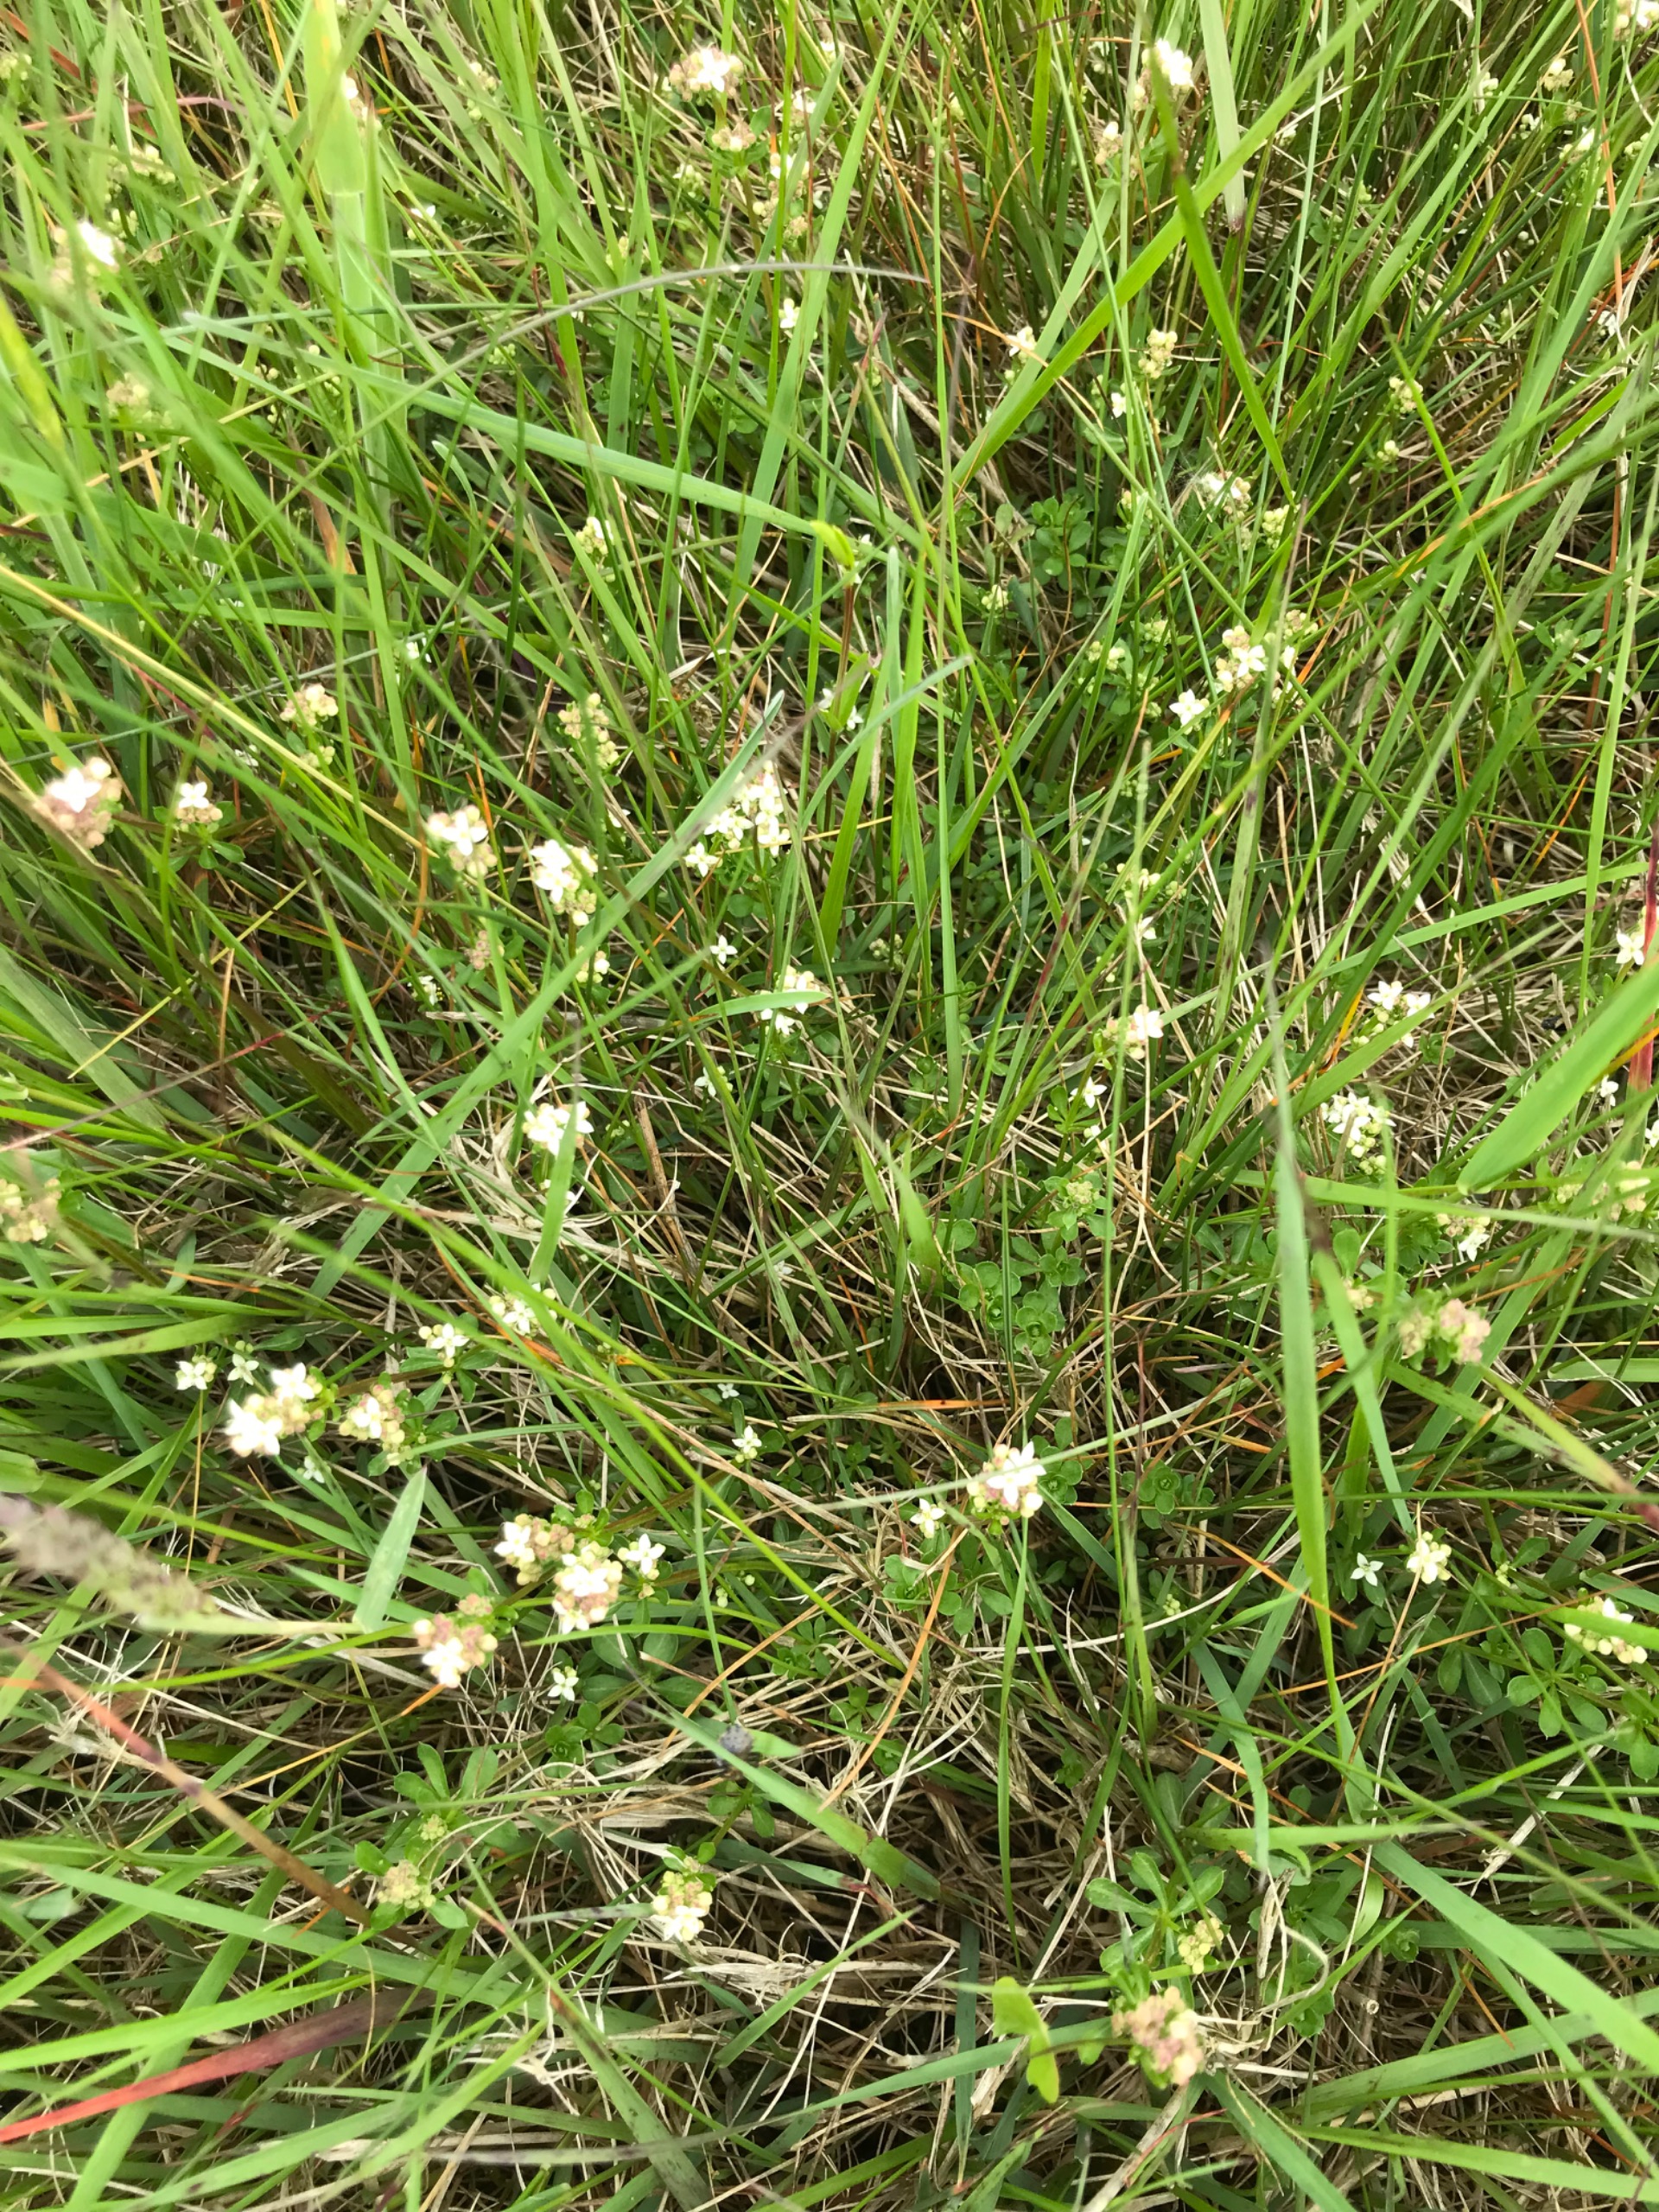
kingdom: Plantae
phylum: Tracheophyta
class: Magnoliopsida
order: Gentianales
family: Rubiaceae
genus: Galium
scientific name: Galium saxatile
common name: Lyng-snerre
